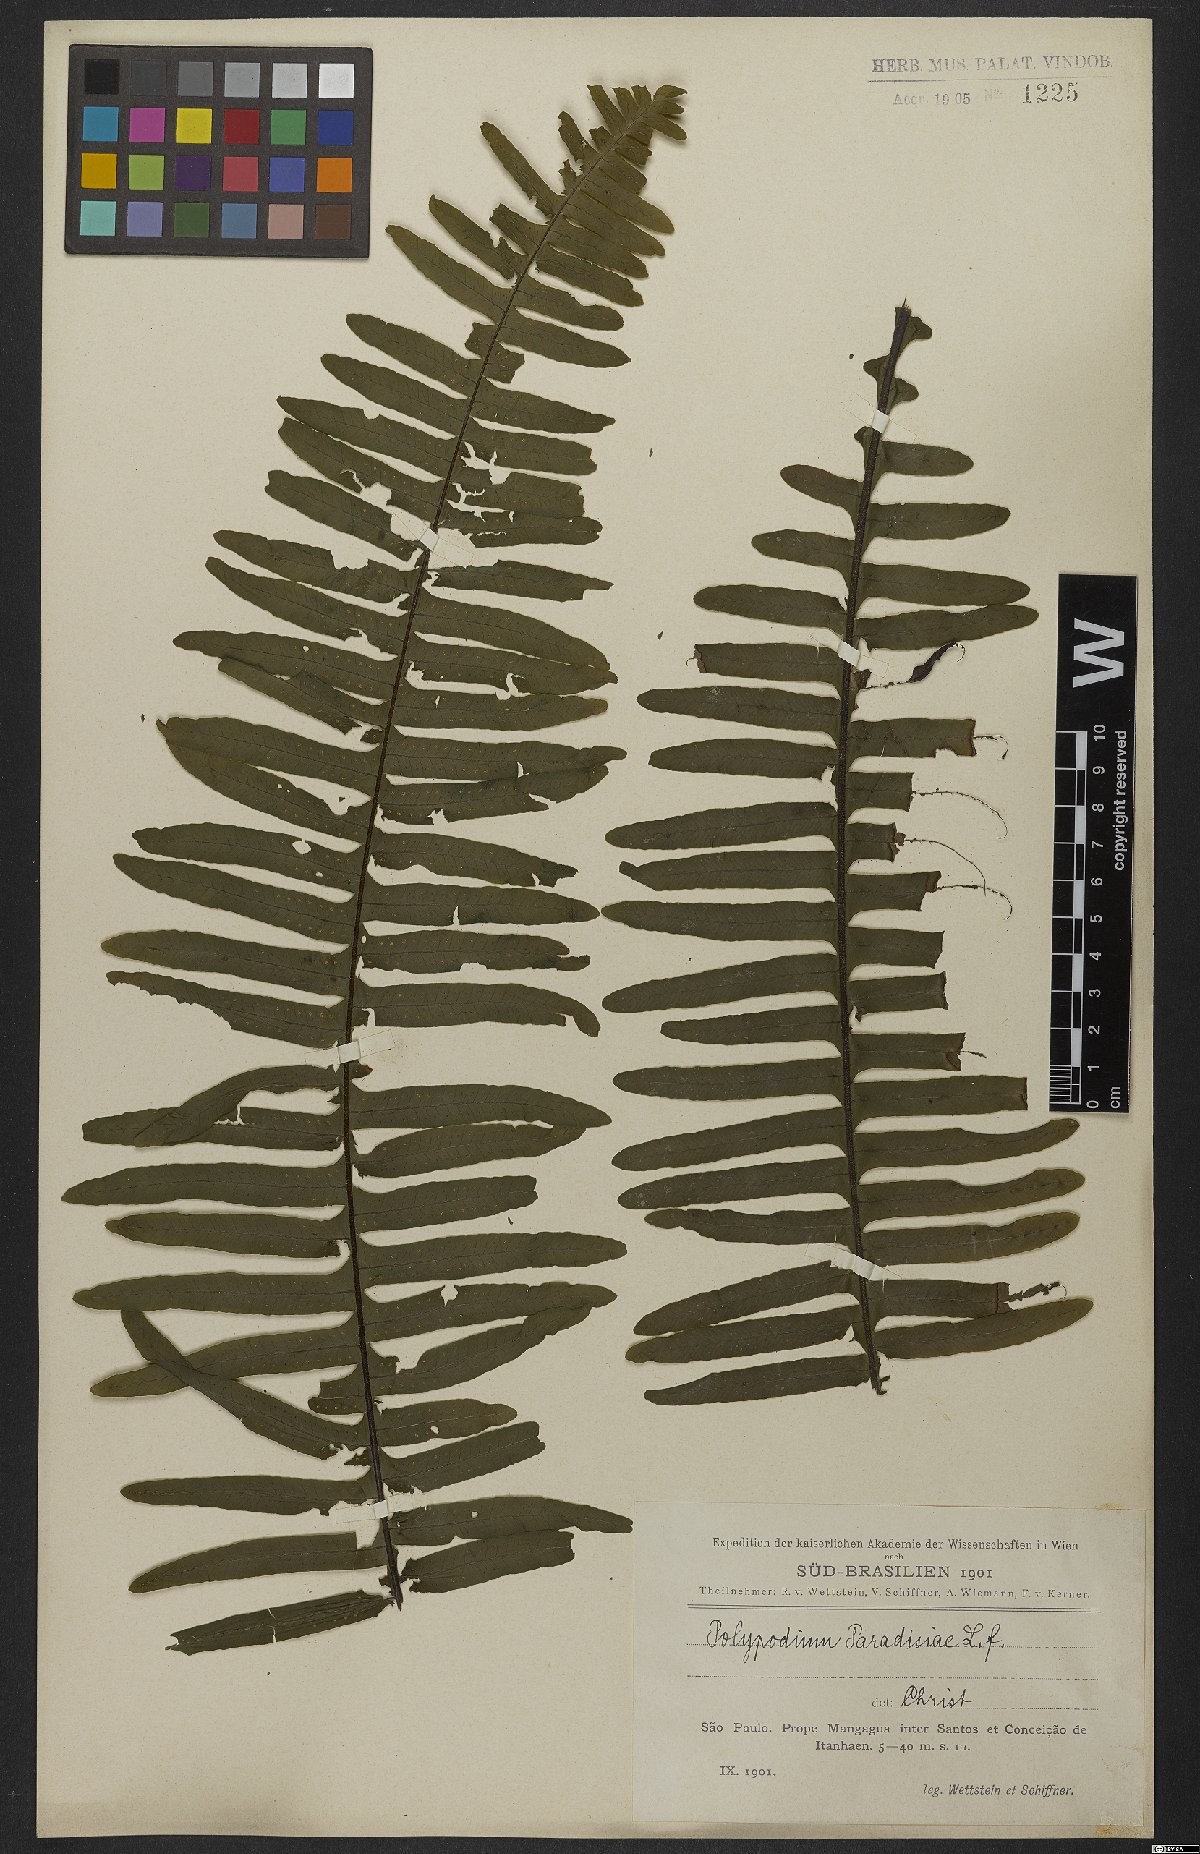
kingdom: Plantae
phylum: Tracheophyta
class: Polypodiopsida
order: Polypodiales
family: Polypodiaceae
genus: Pecluma
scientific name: Pecluma paradiseae
